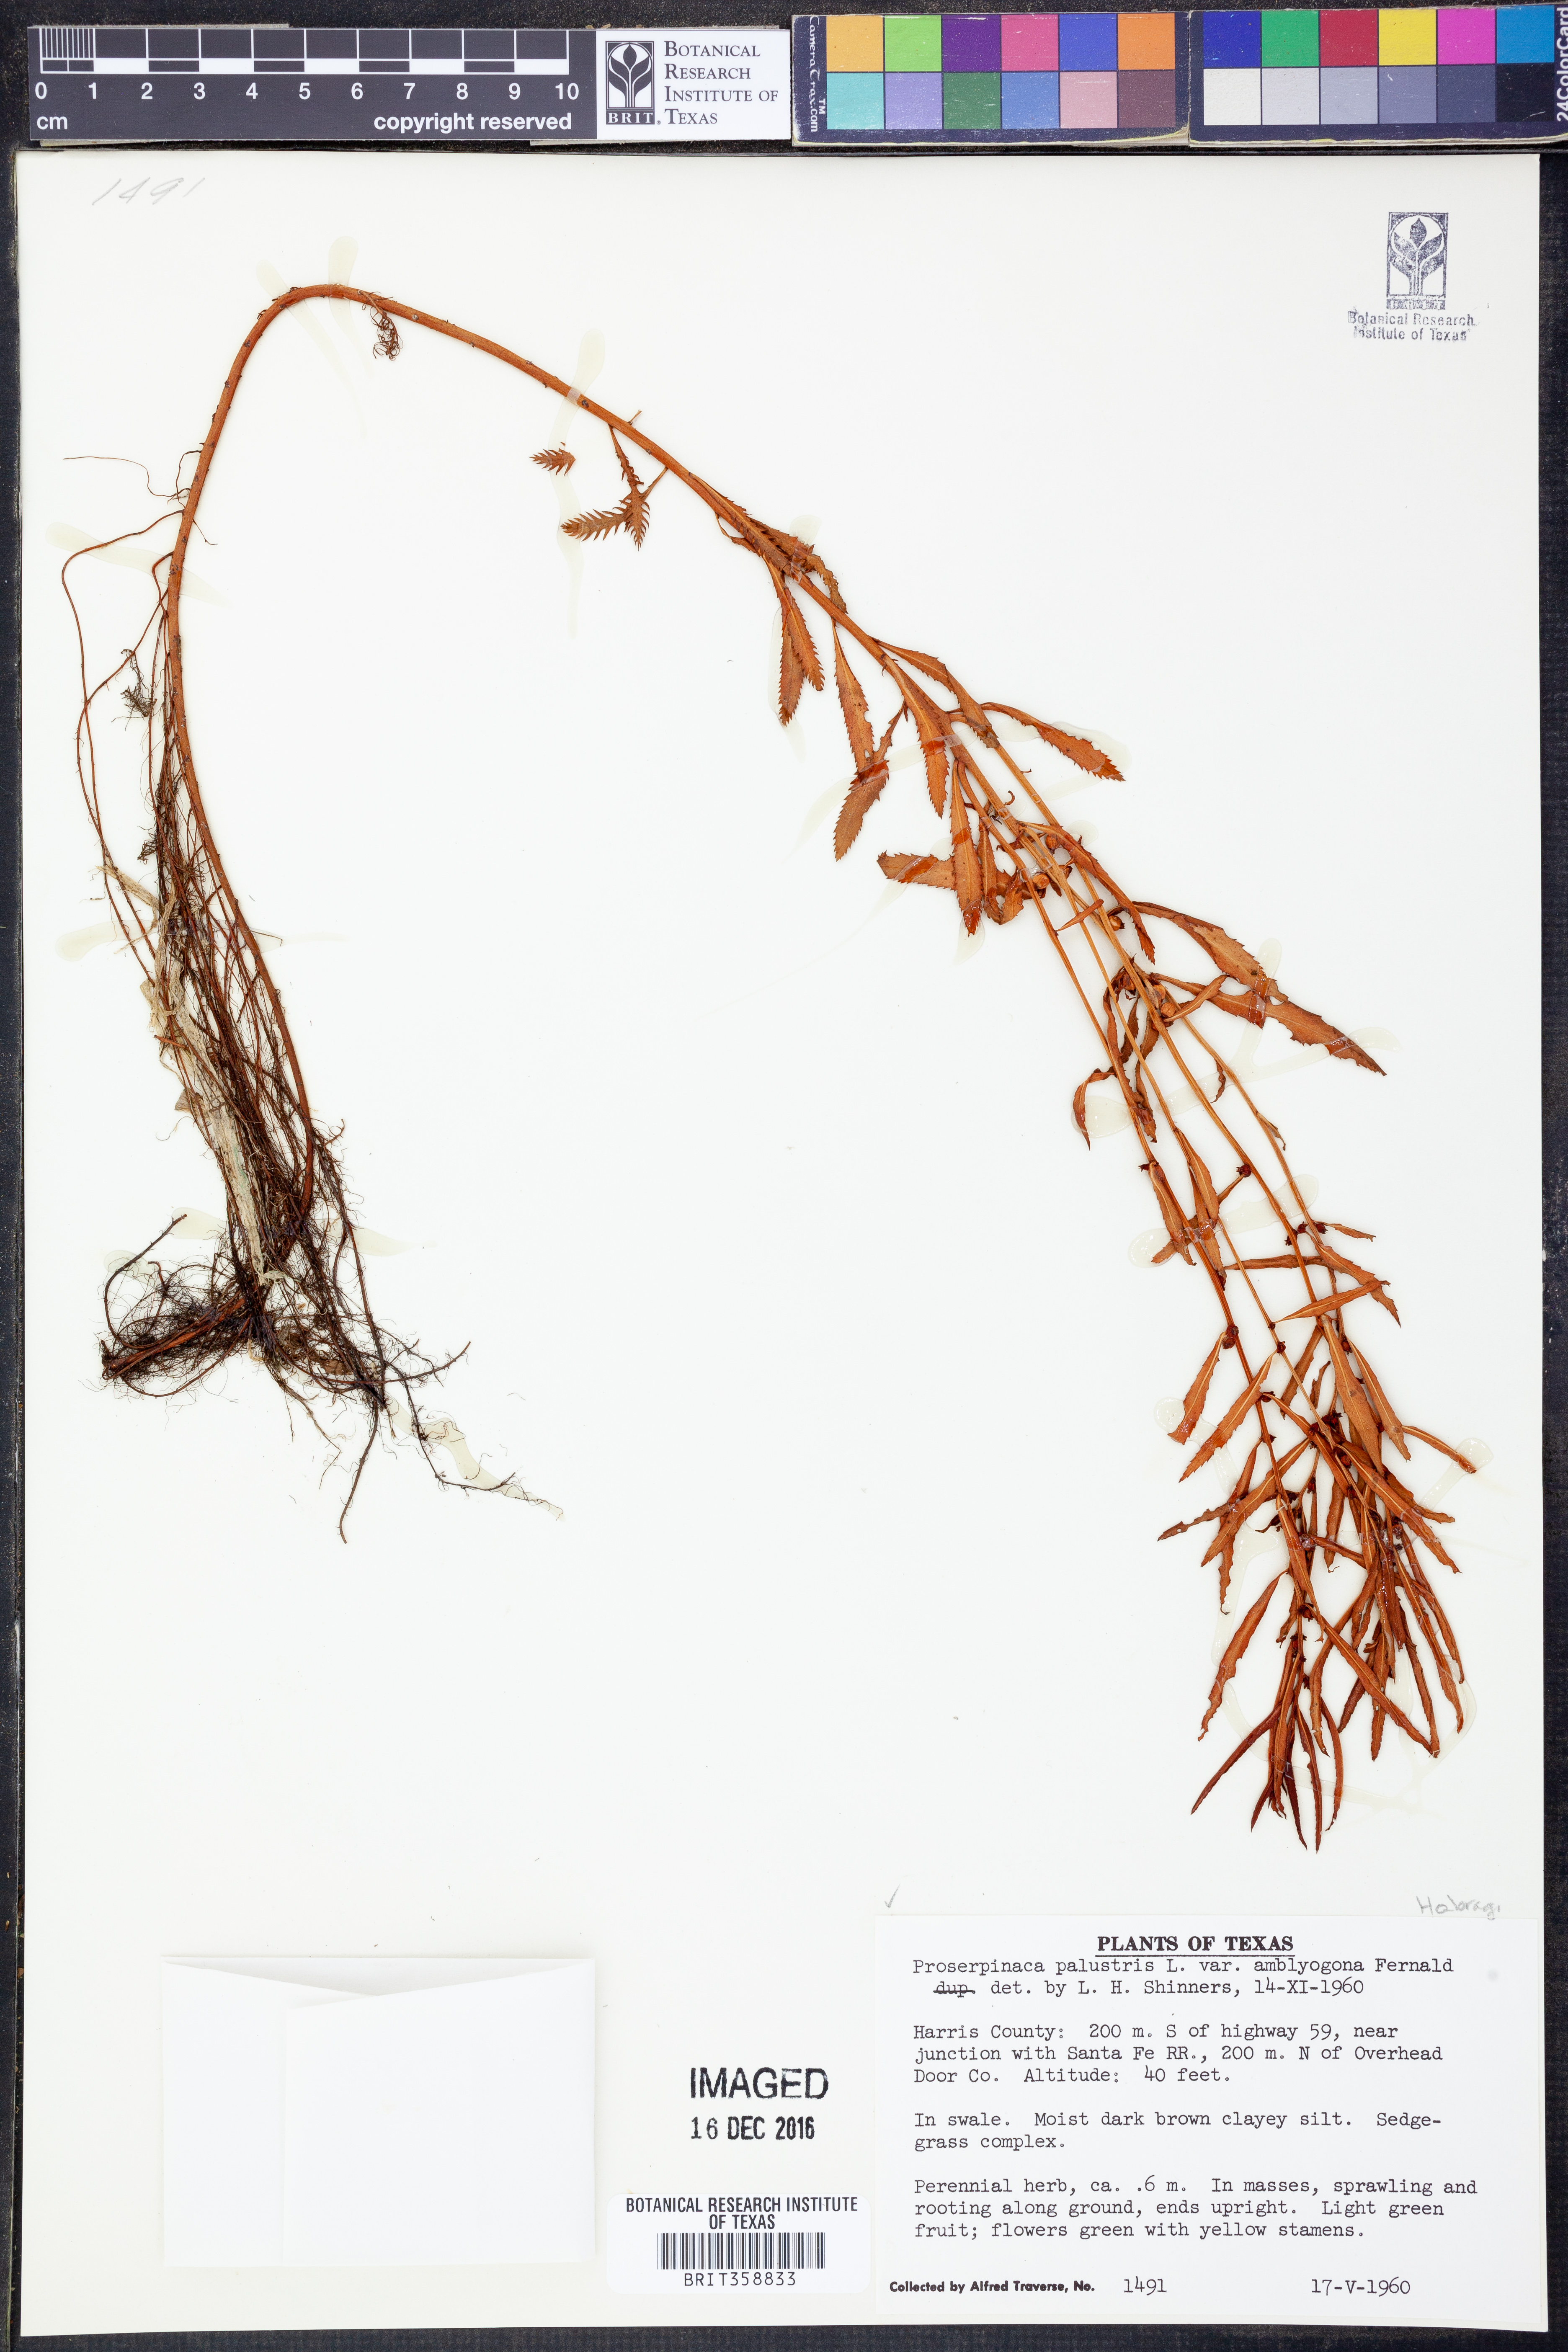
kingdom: Plantae
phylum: Tracheophyta
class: Magnoliopsida
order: Saxifragales
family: Haloragaceae
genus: Proserpinaca
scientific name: Proserpinaca palustris
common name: Marsh mermaidweed
